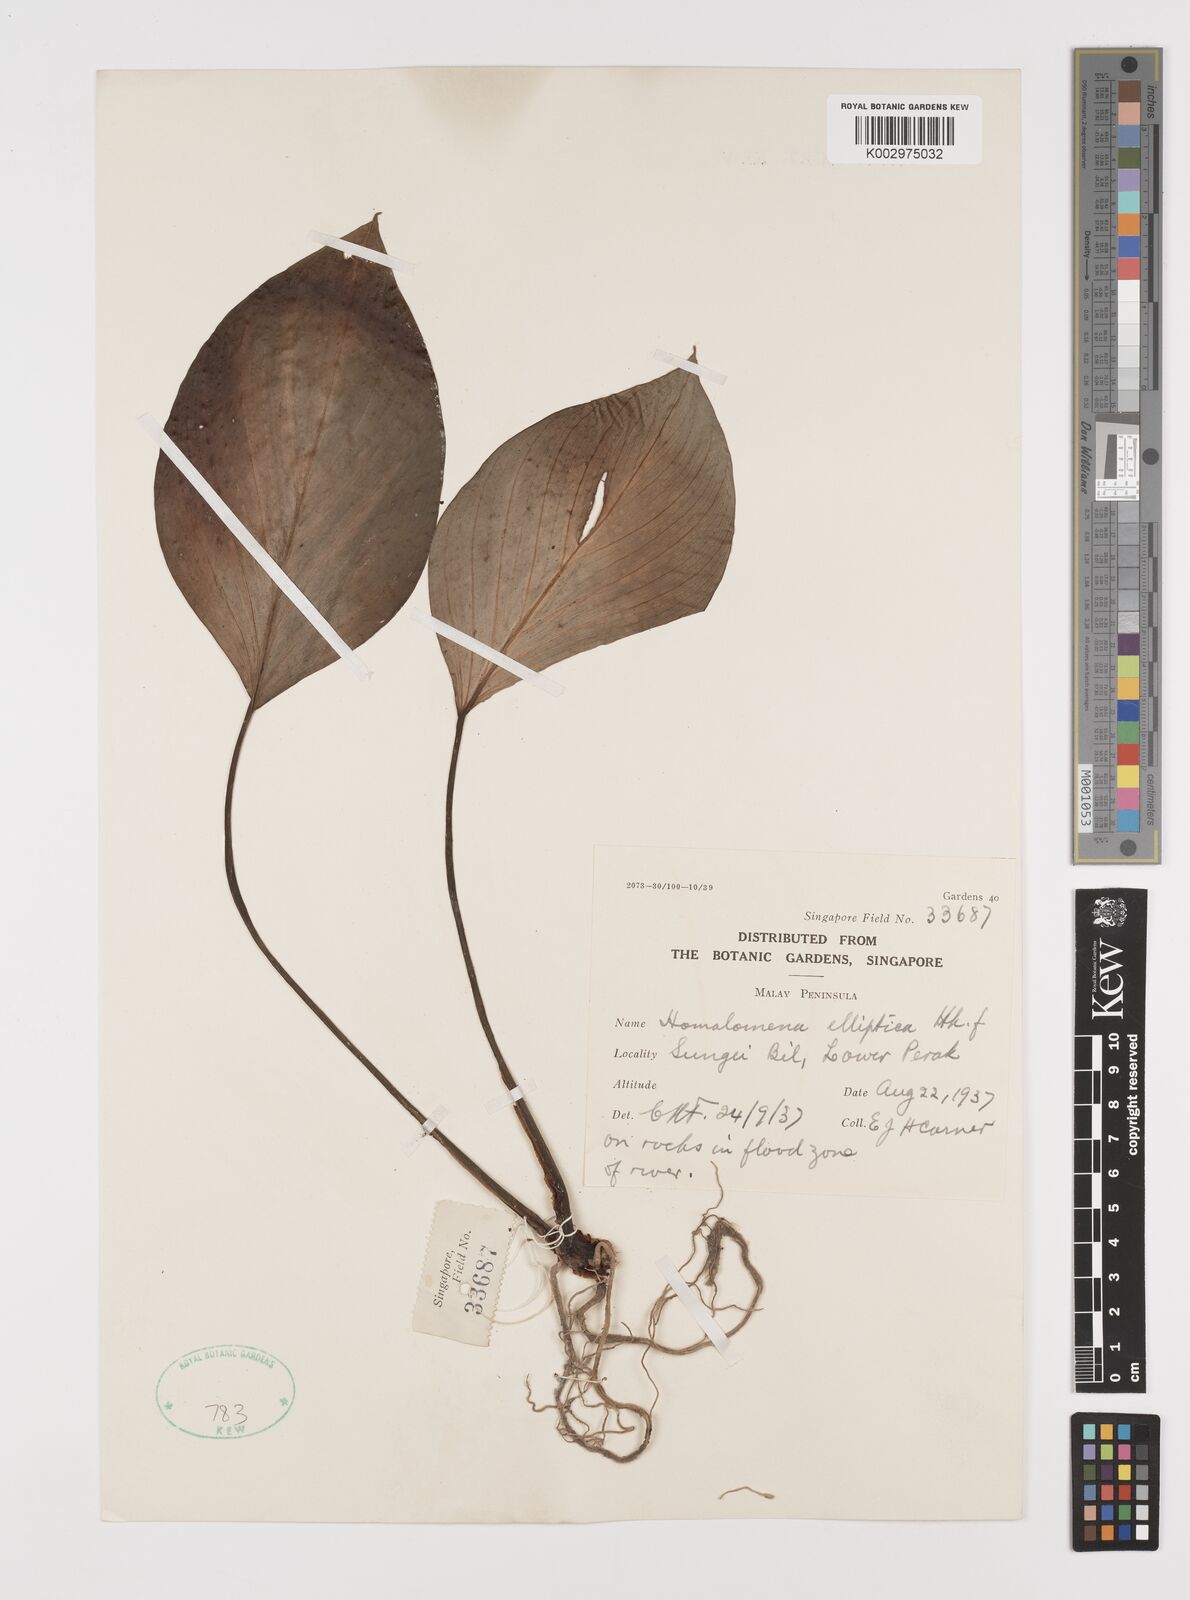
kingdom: Plantae
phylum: Tracheophyta
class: Liliopsida
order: Alismatales
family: Araceae
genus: Homalomena
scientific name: Homalomena griffithii
